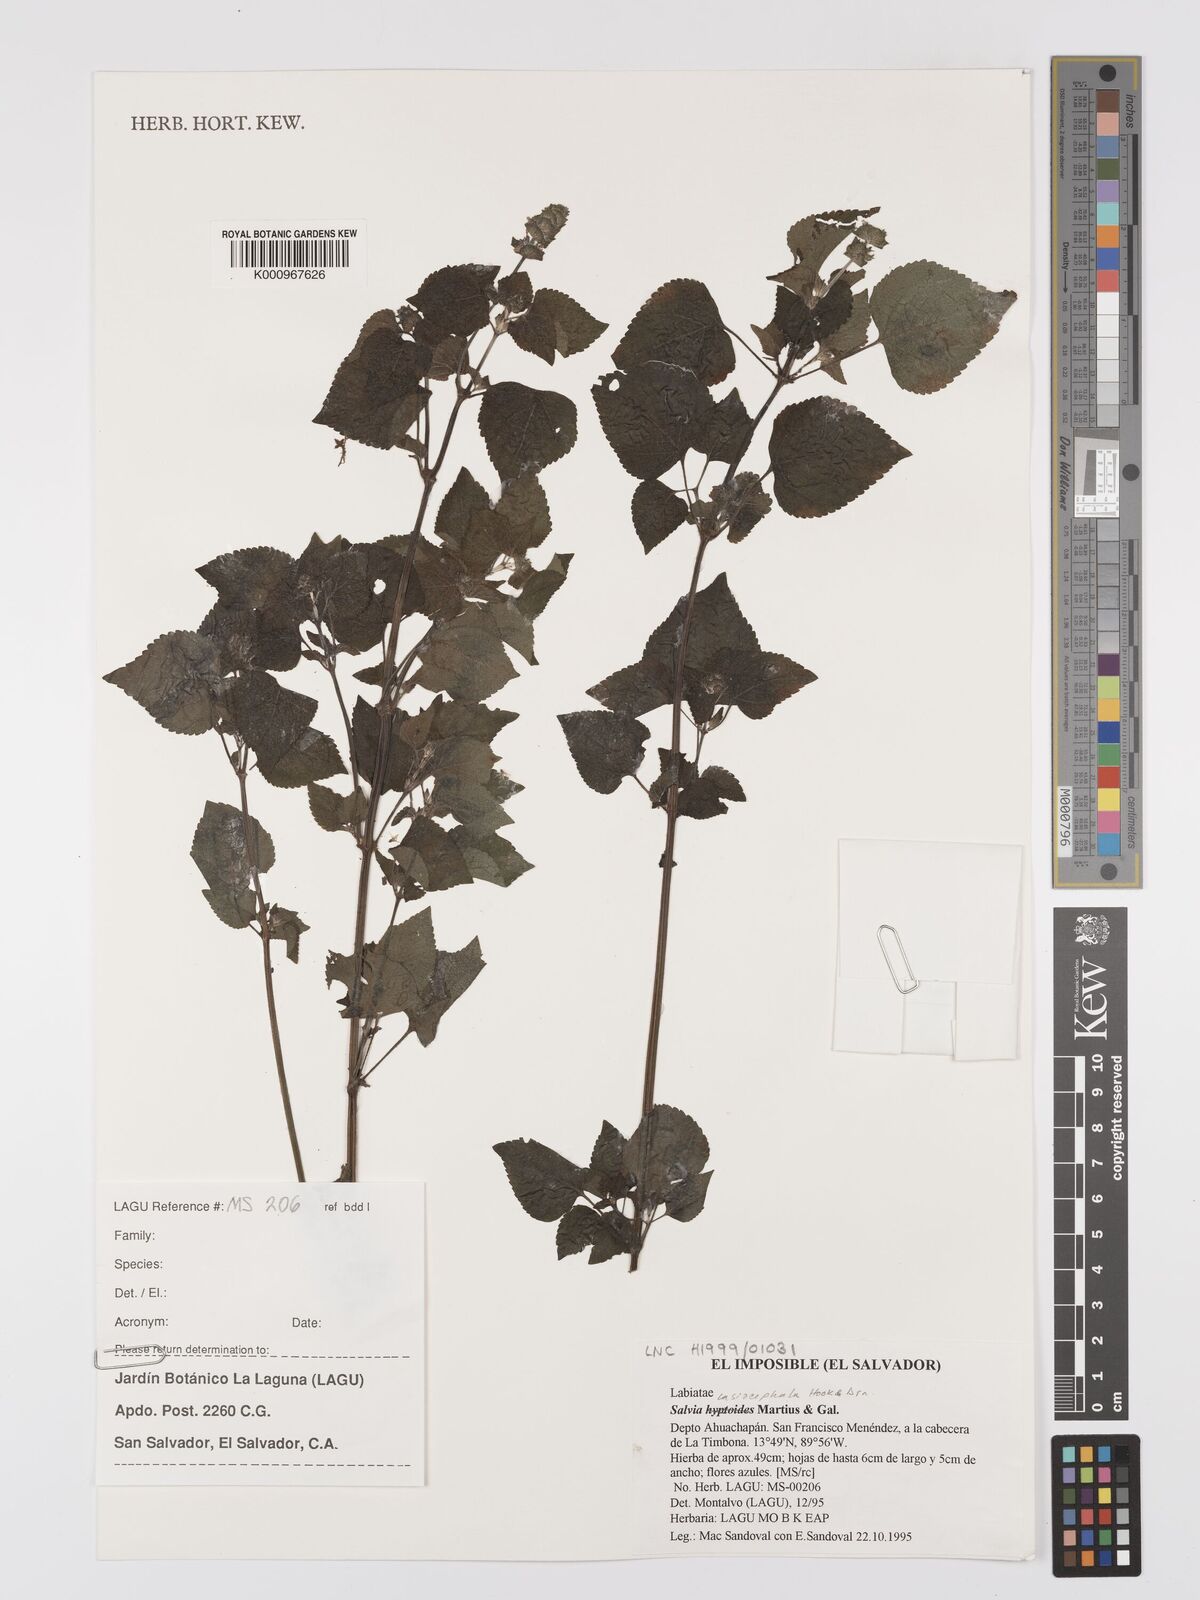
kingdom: Plantae
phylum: Tracheophyta
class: Magnoliopsida
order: Lamiales
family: Lamiaceae
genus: Salvia
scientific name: Salvia lasiocephala
